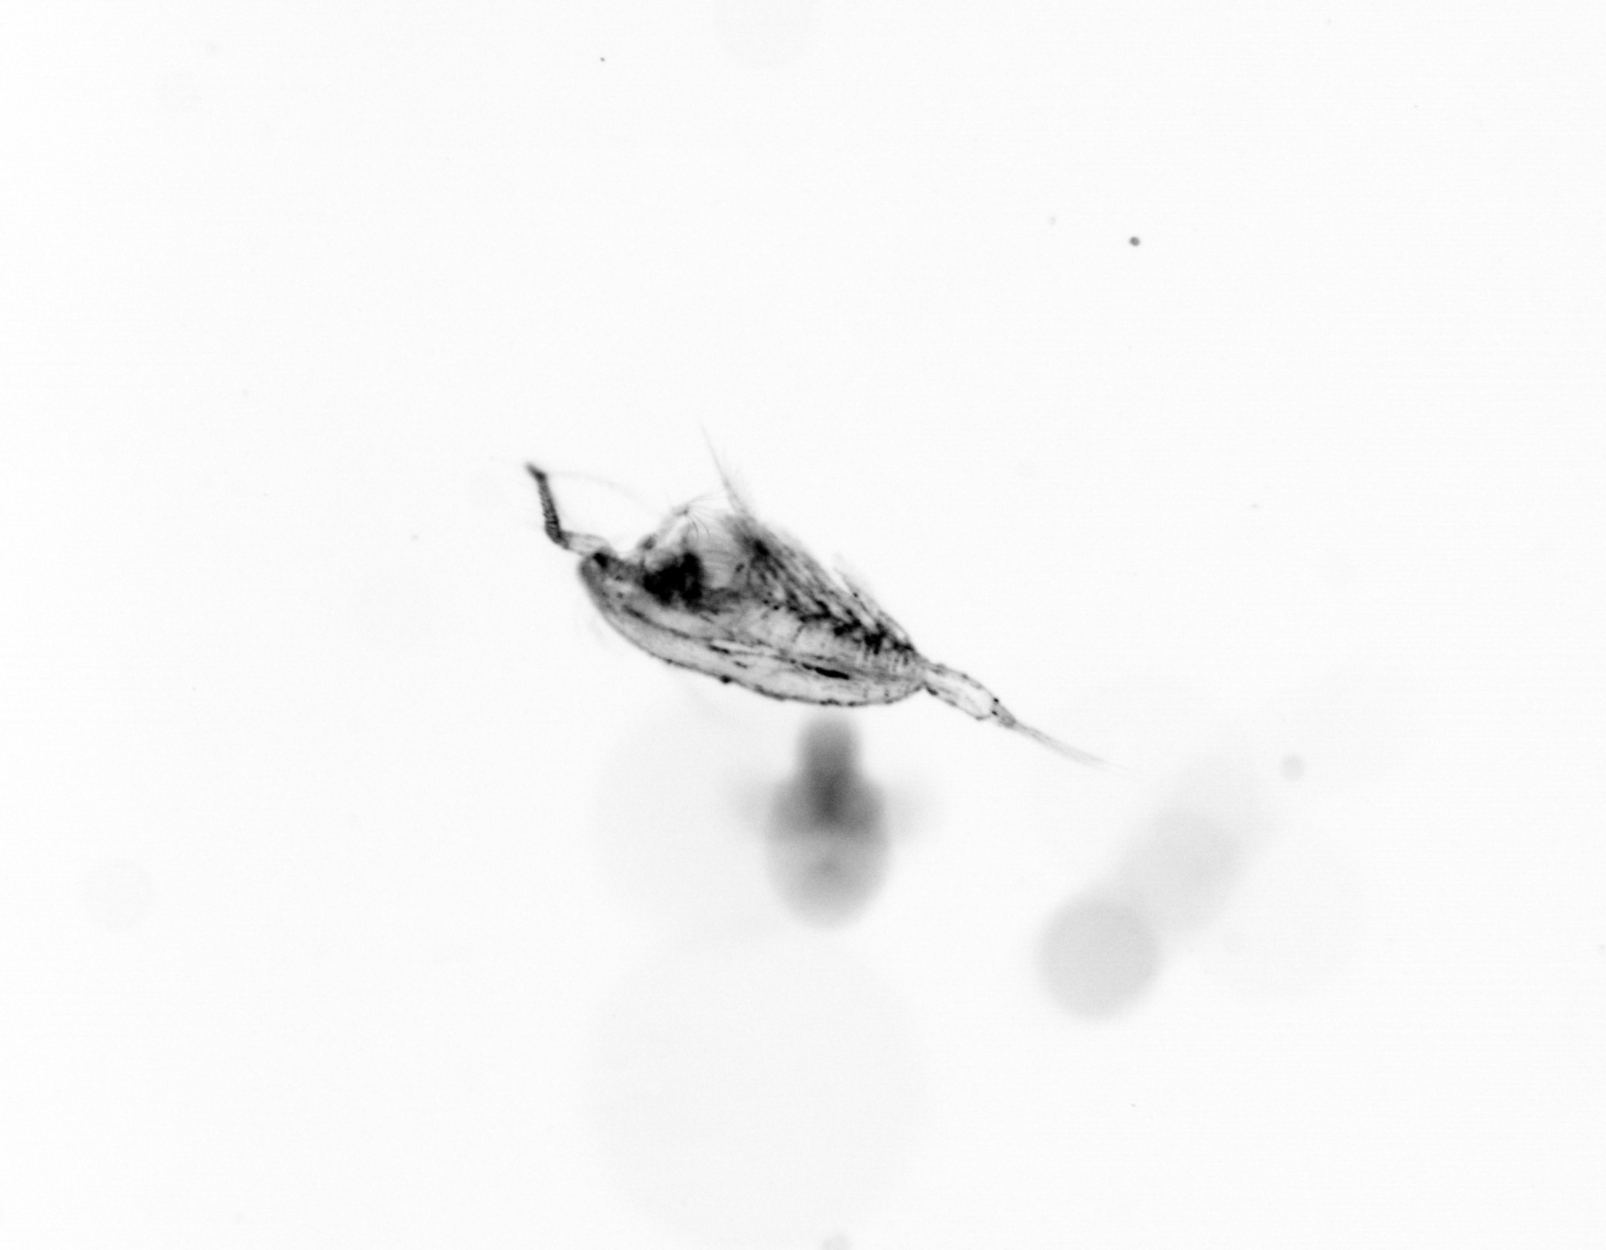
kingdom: Animalia
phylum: Arthropoda
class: Copepoda
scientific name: Copepoda
